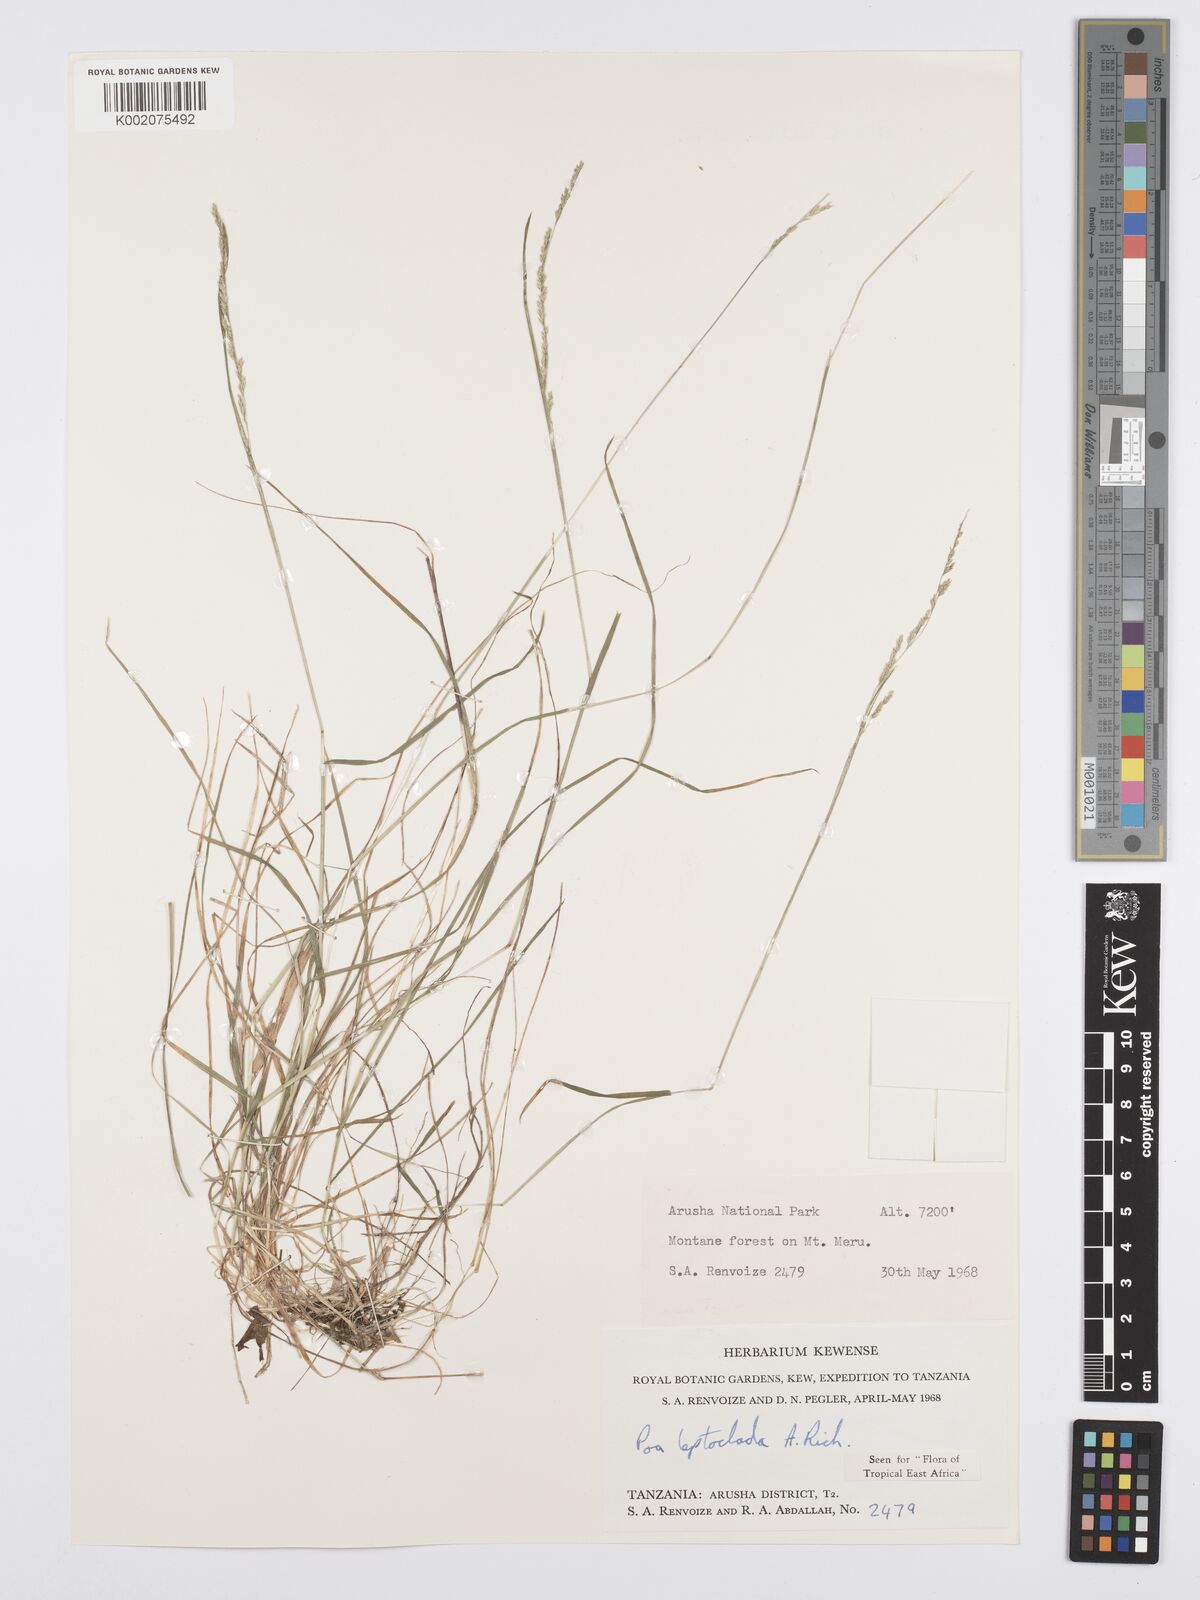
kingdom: Plantae
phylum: Tracheophyta
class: Liliopsida
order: Poales
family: Poaceae
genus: Poa
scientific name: Poa leptoclada
